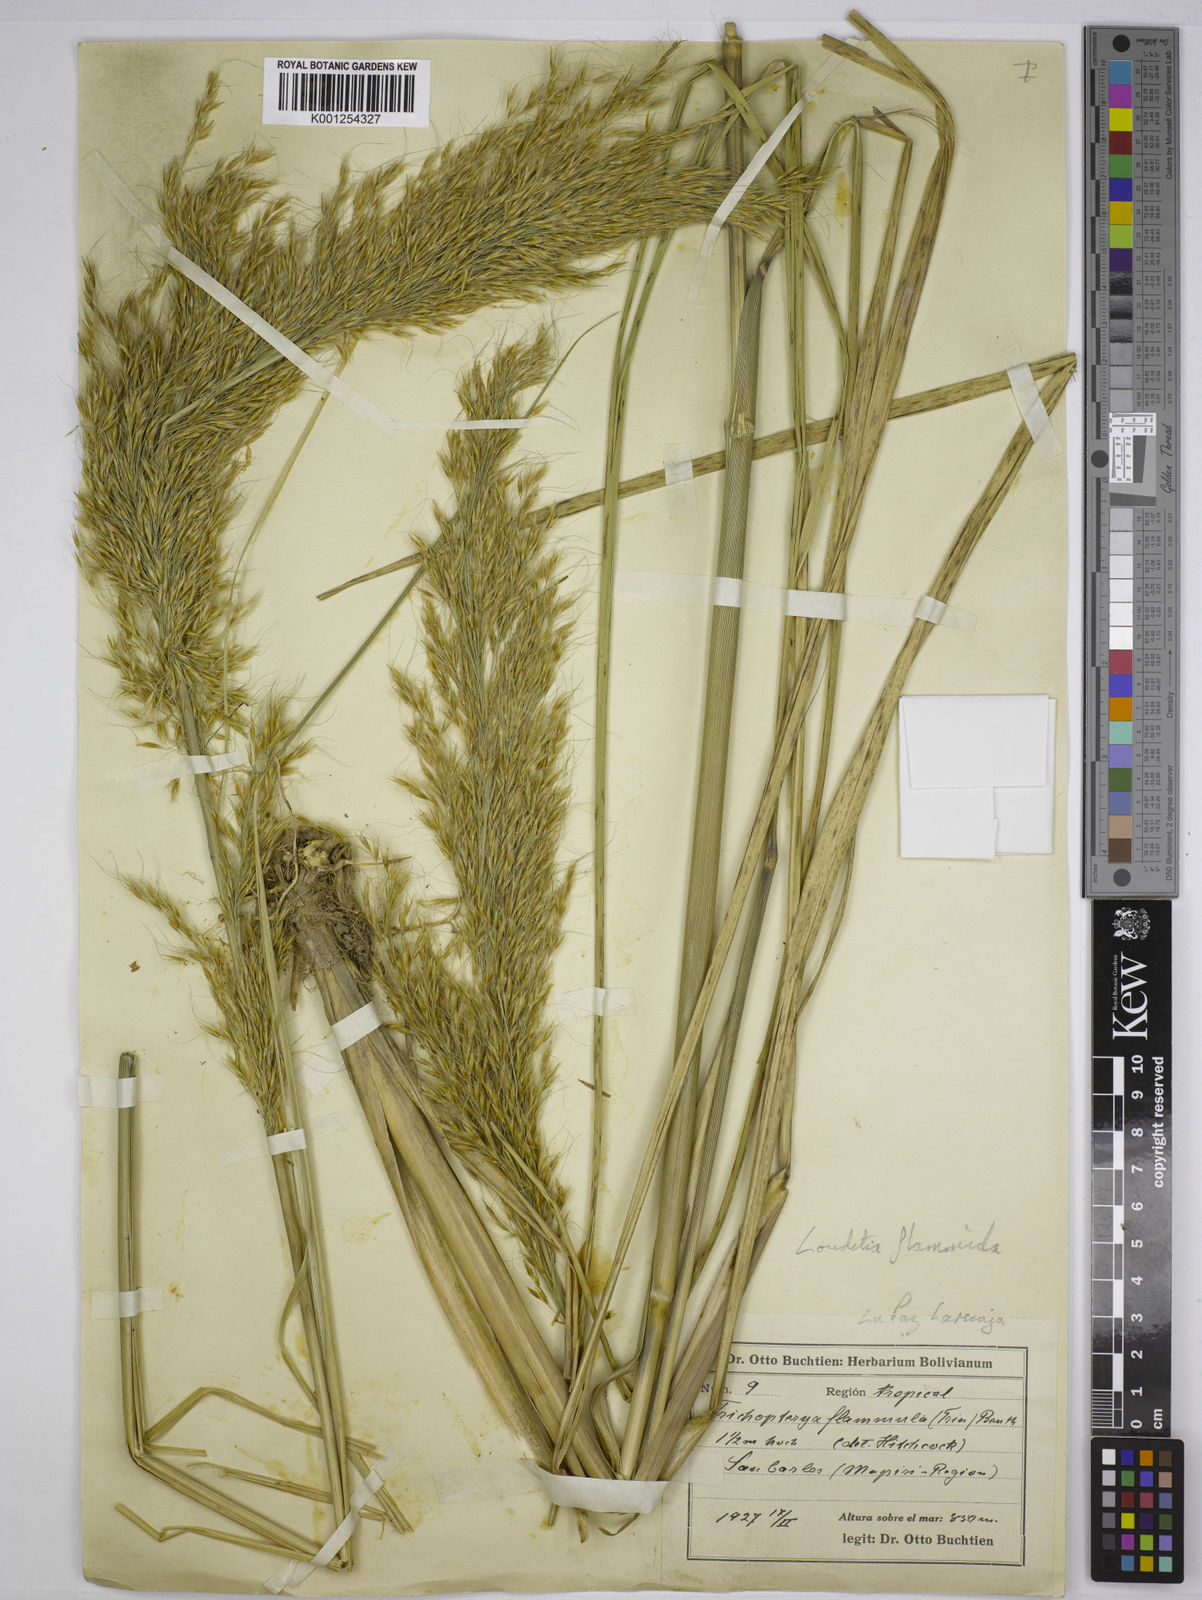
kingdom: Plantae
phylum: Tracheophyta
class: Liliopsida
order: Poales
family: Poaceae
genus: Loudetia
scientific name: Loudetia flammida
